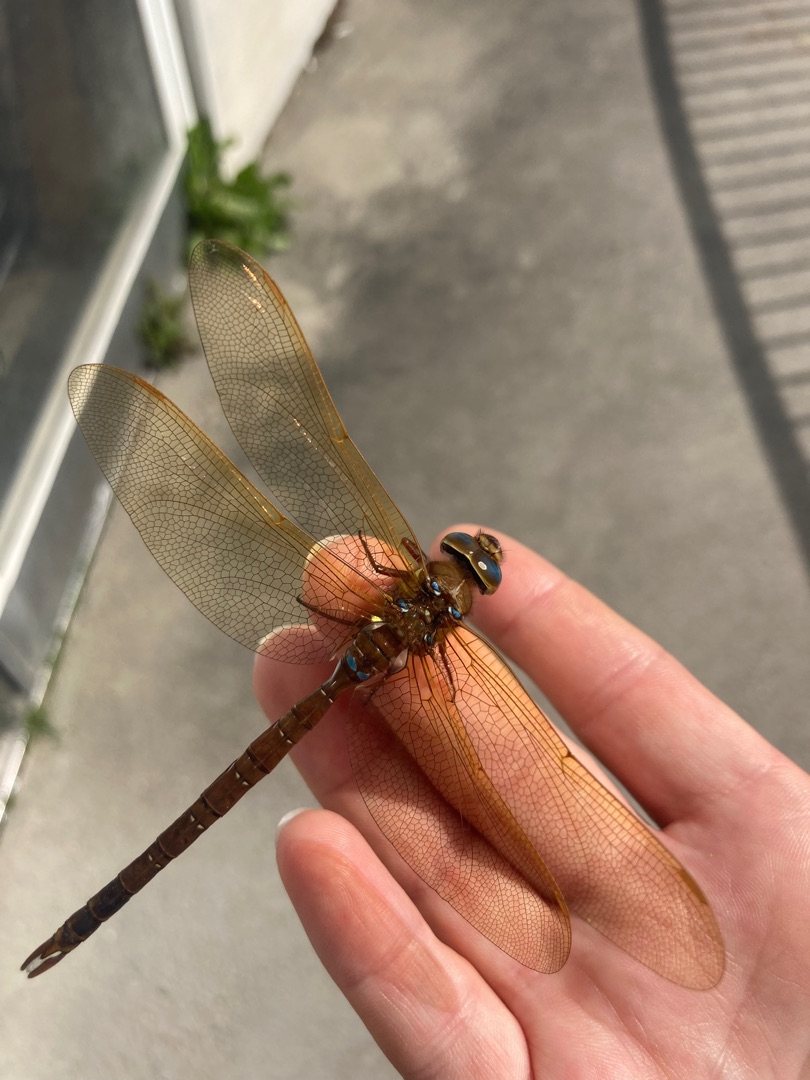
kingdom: Animalia
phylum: Arthropoda
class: Insecta
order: Odonata
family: Aeshnidae
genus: Aeshna
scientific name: Aeshna grandis
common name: Brun mosaikguldsmed
